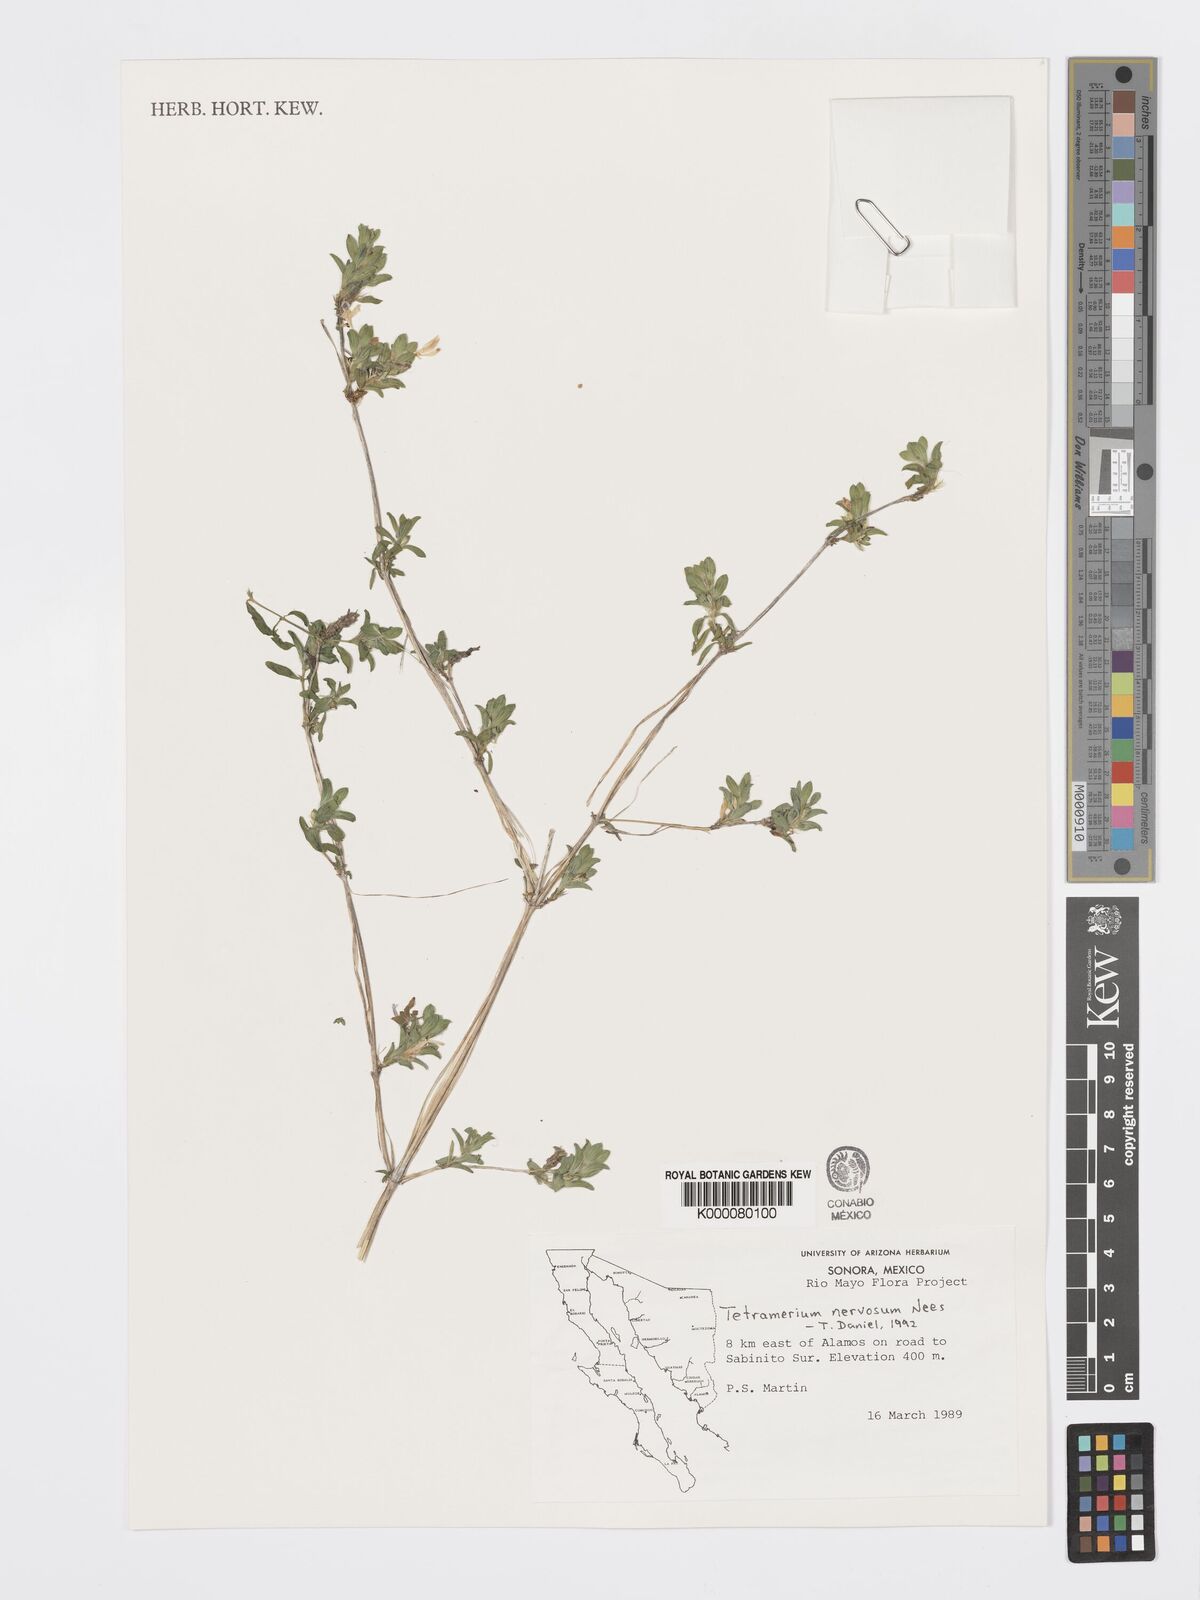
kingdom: Plantae
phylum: Tracheophyta
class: Magnoliopsida
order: Lamiales
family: Acanthaceae
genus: Tetramerium
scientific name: Tetramerium nervosum
